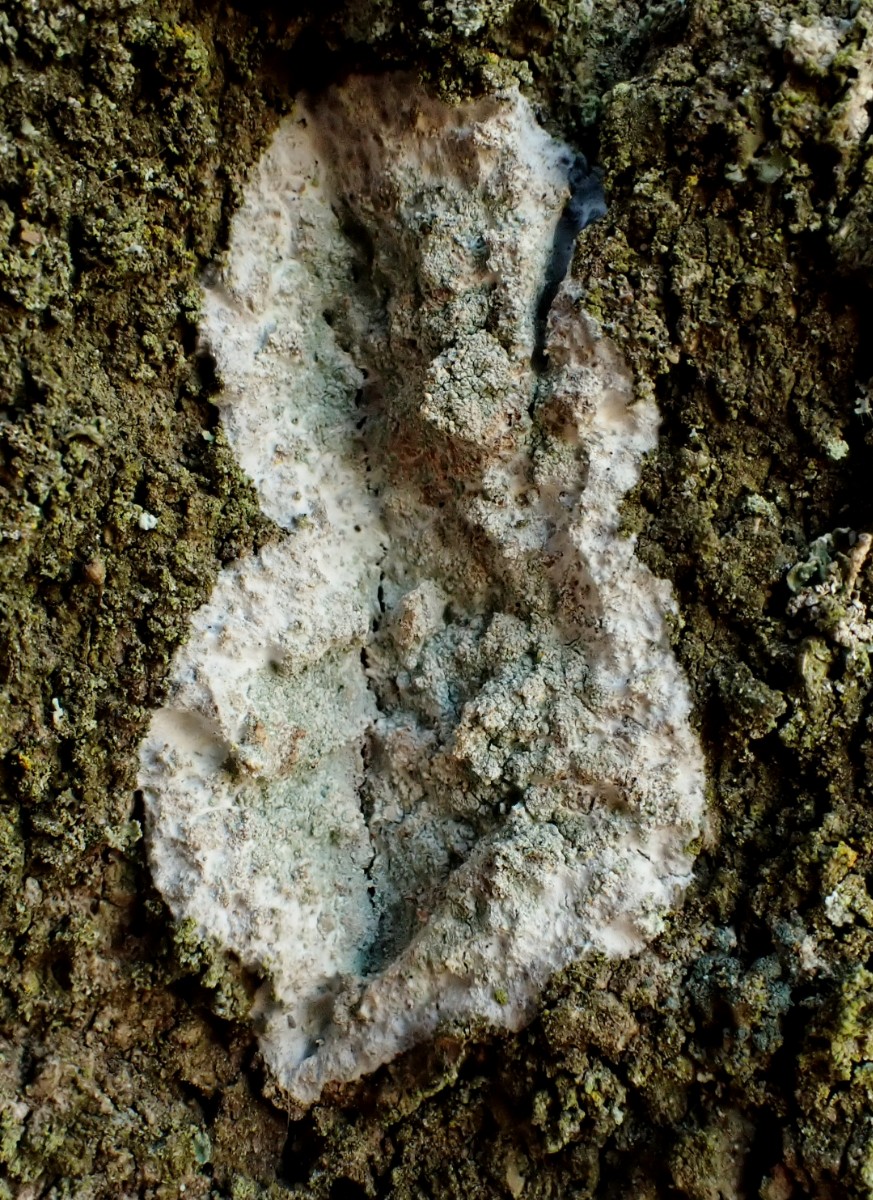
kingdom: Fungi
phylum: Ascomycota
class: Lecanoromycetes
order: Ostropales
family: Phlyctidaceae
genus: Phlyctis
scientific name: Phlyctis argena
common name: almindelig sølvlav
